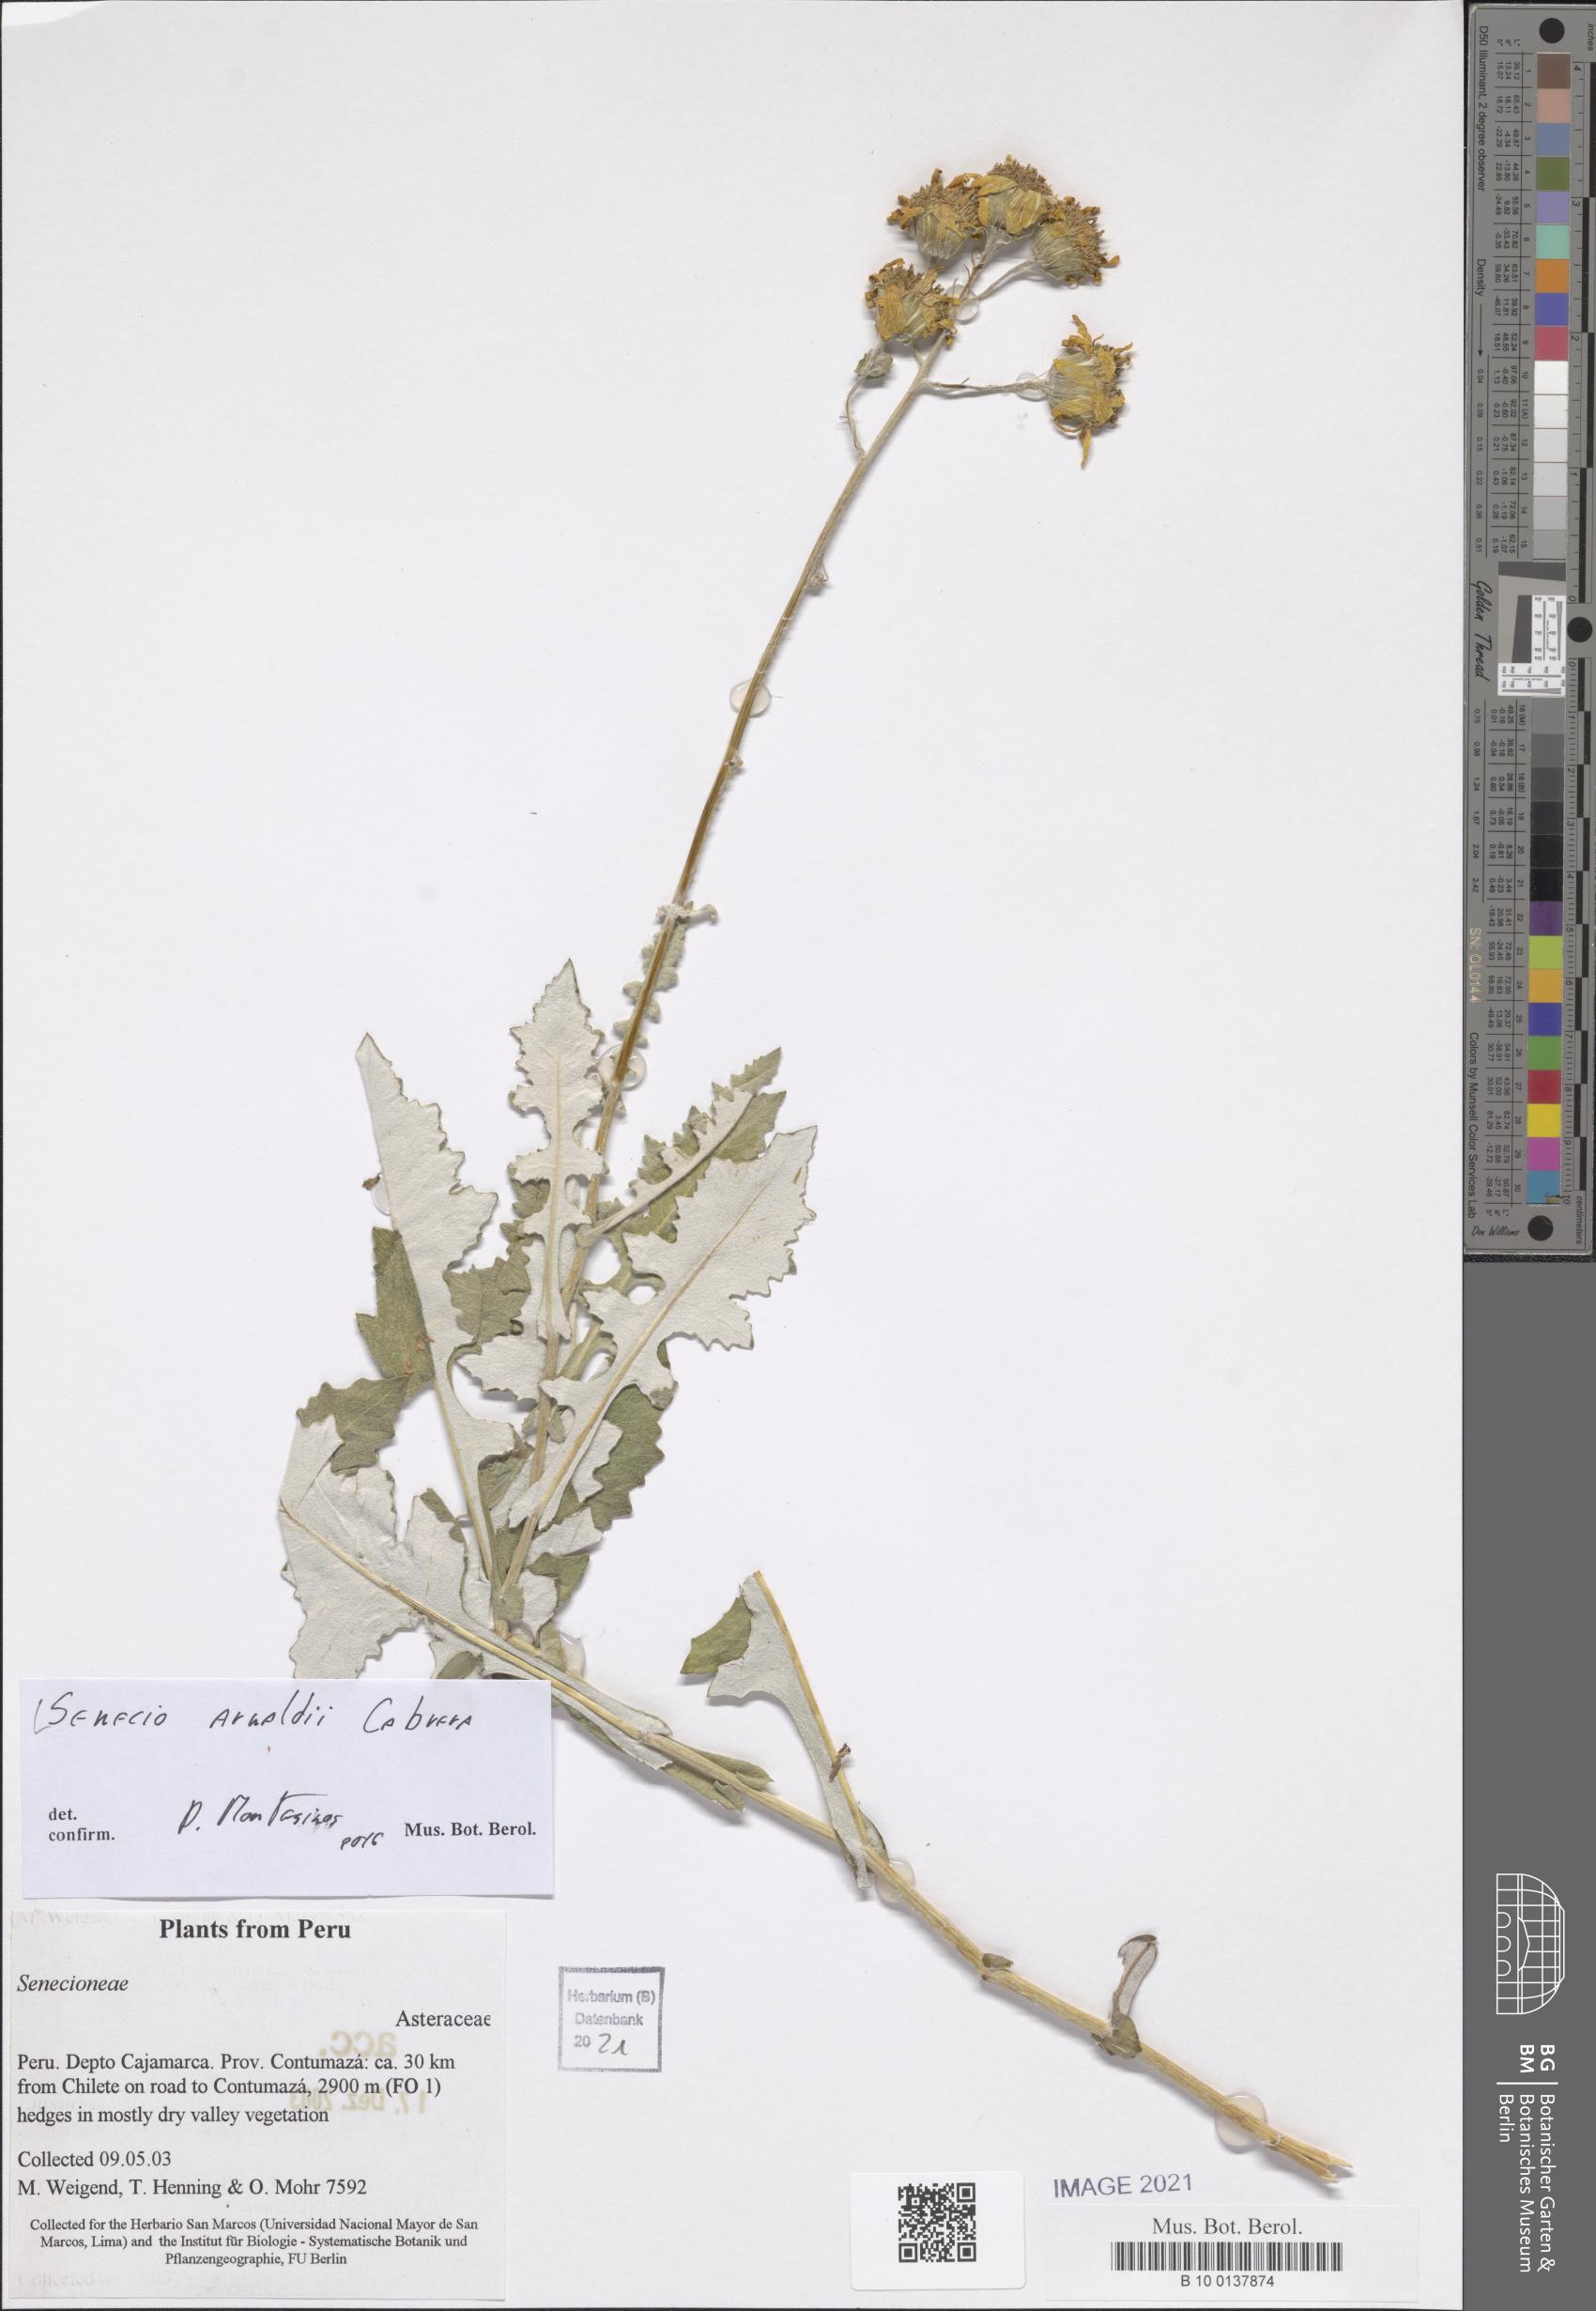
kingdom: Plantae
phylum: Tracheophyta
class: Magnoliopsida
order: Asterales
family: Asteraceae
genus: Lomanthus
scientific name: Lomanthus arnaldii
